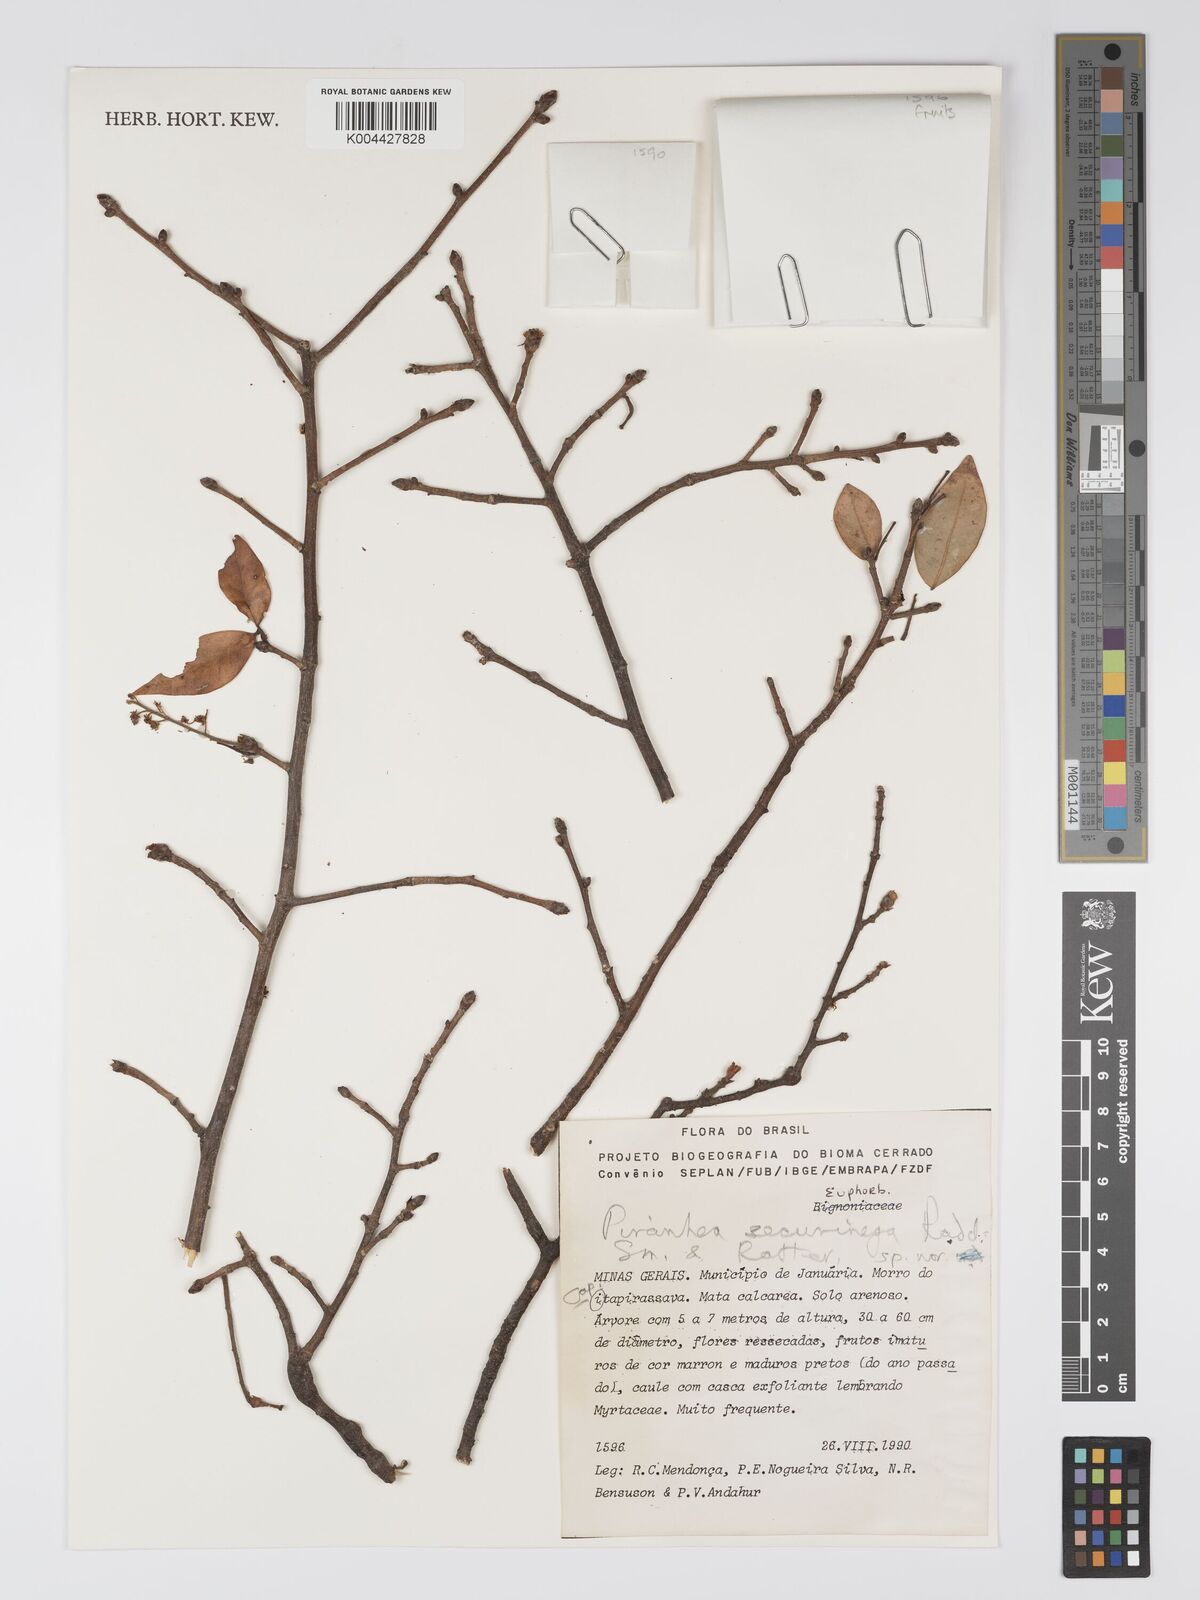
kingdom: Plantae
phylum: Tracheophyta
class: Magnoliopsida
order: Malpighiales
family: Picrodendraceae
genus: Piranhea
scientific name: Piranhea securinega
